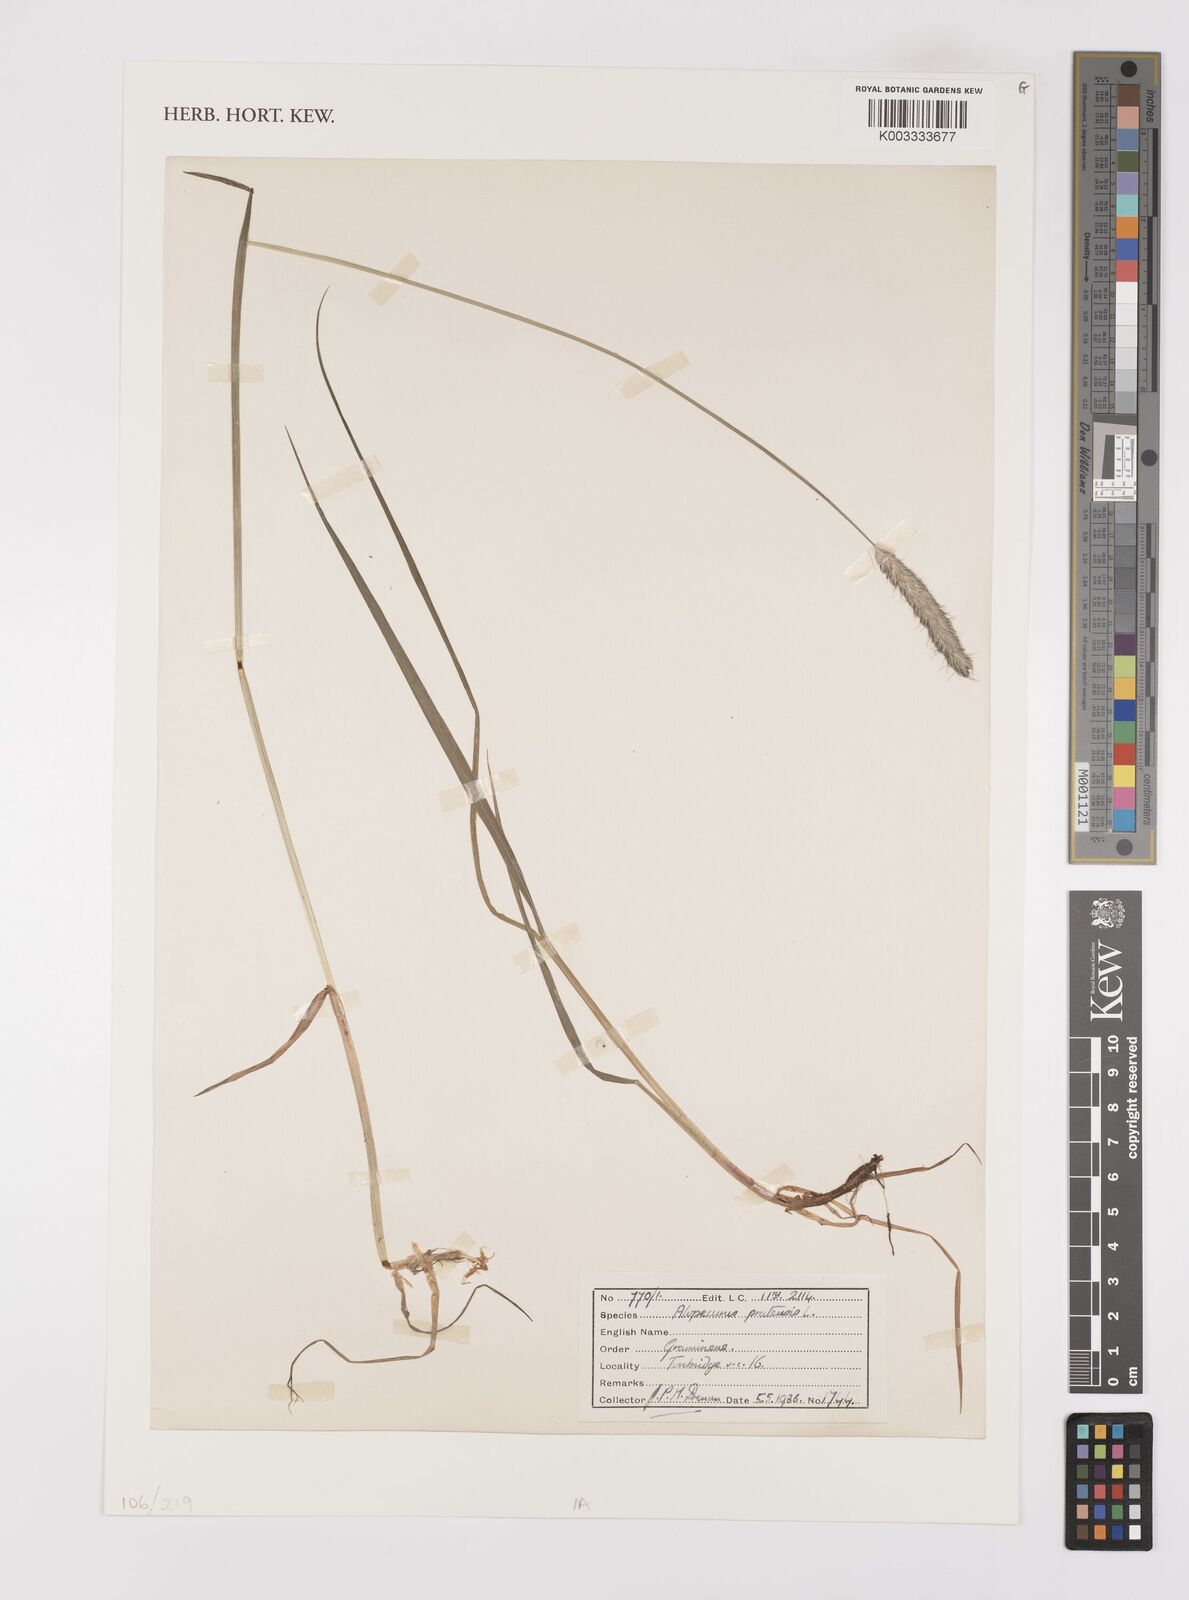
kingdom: Plantae
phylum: Tracheophyta
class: Liliopsida
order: Poales
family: Poaceae
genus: Alopecurus
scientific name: Alopecurus pratensis
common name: Meadow foxtail
